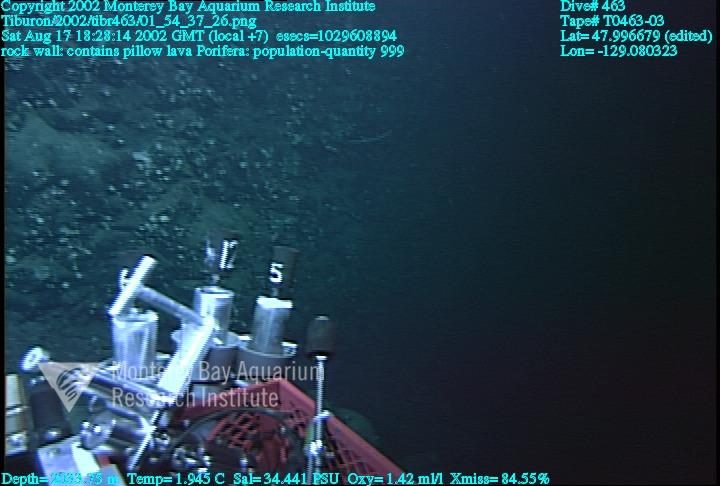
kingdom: Animalia
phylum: Porifera
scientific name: Porifera
